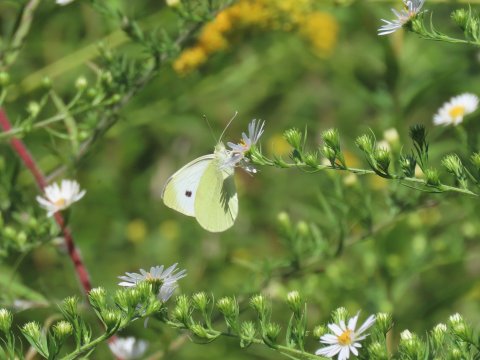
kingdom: Animalia
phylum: Arthropoda
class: Insecta
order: Lepidoptera
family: Pieridae
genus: Pieris
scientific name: Pieris rapae
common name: Cabbage White
